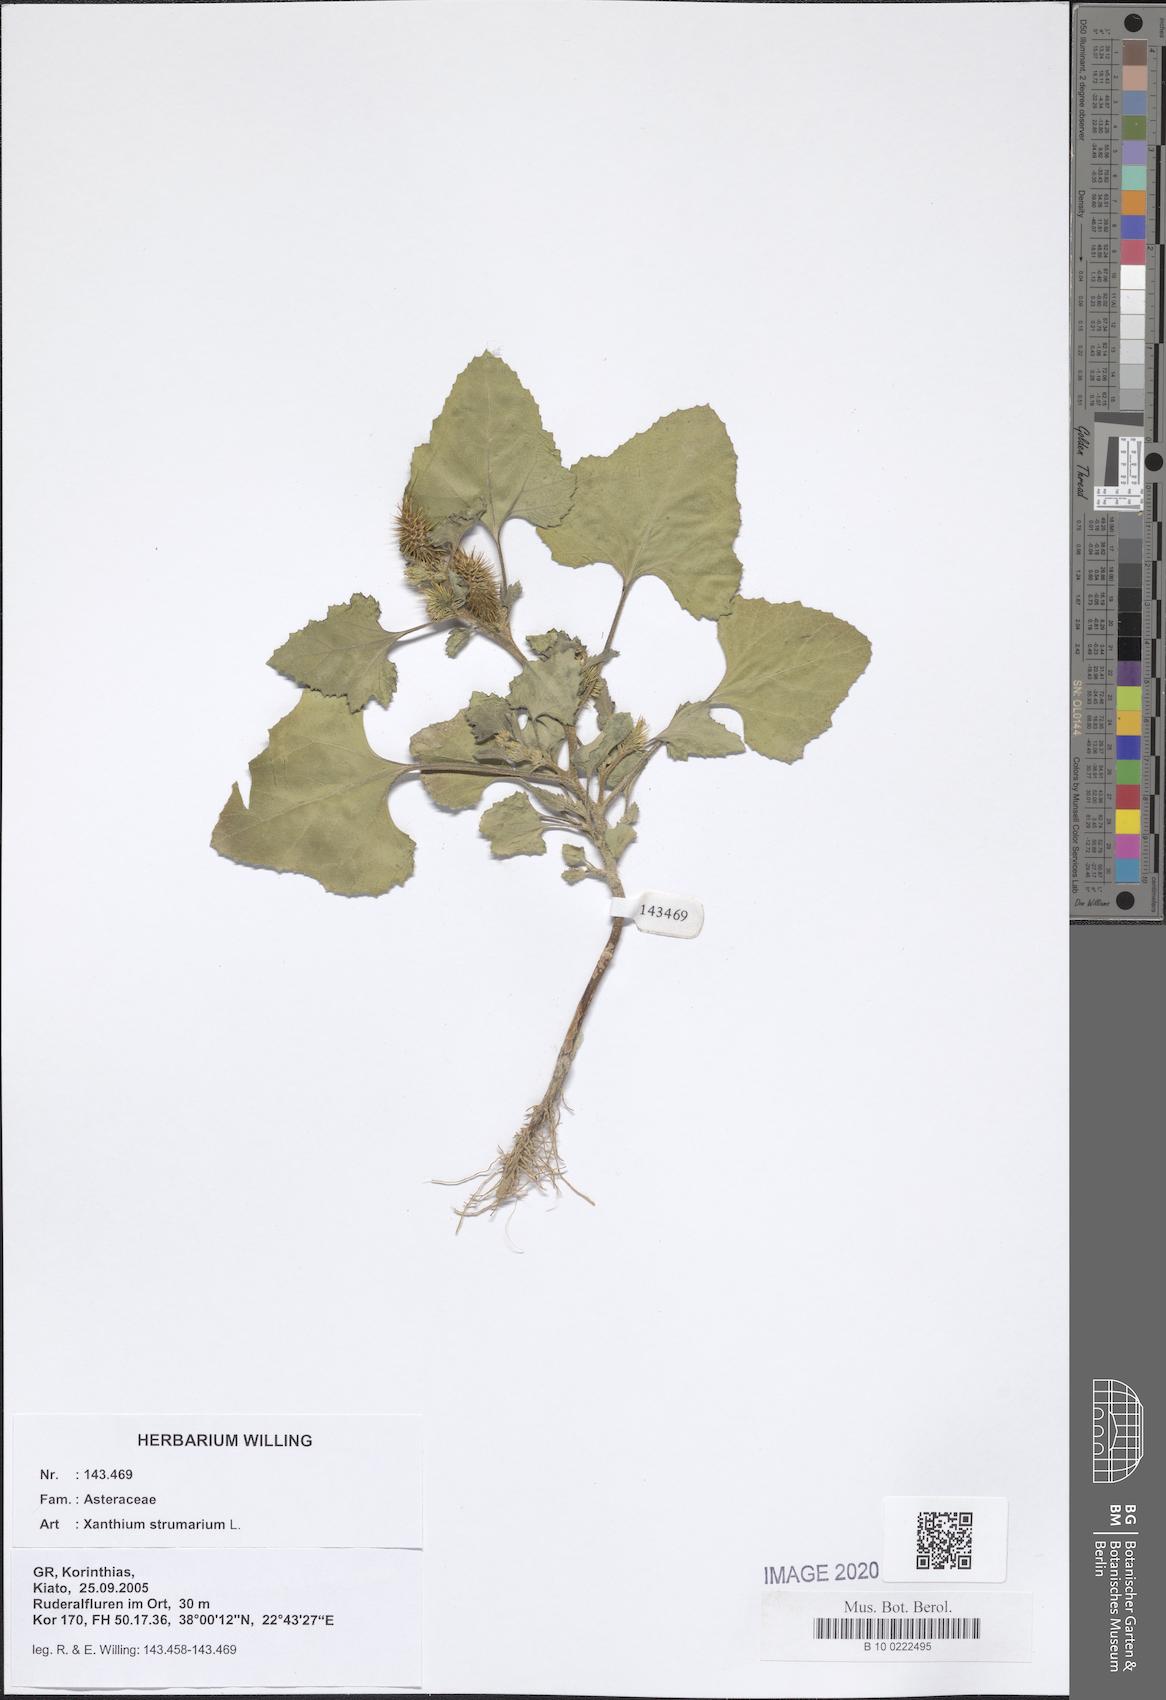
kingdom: Plantae
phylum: Tracheophyta
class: Magnoliopsida
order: Asterales
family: Asteraceae
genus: Xanthium
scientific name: Xanthium strumarium
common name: Rough cocklebur
